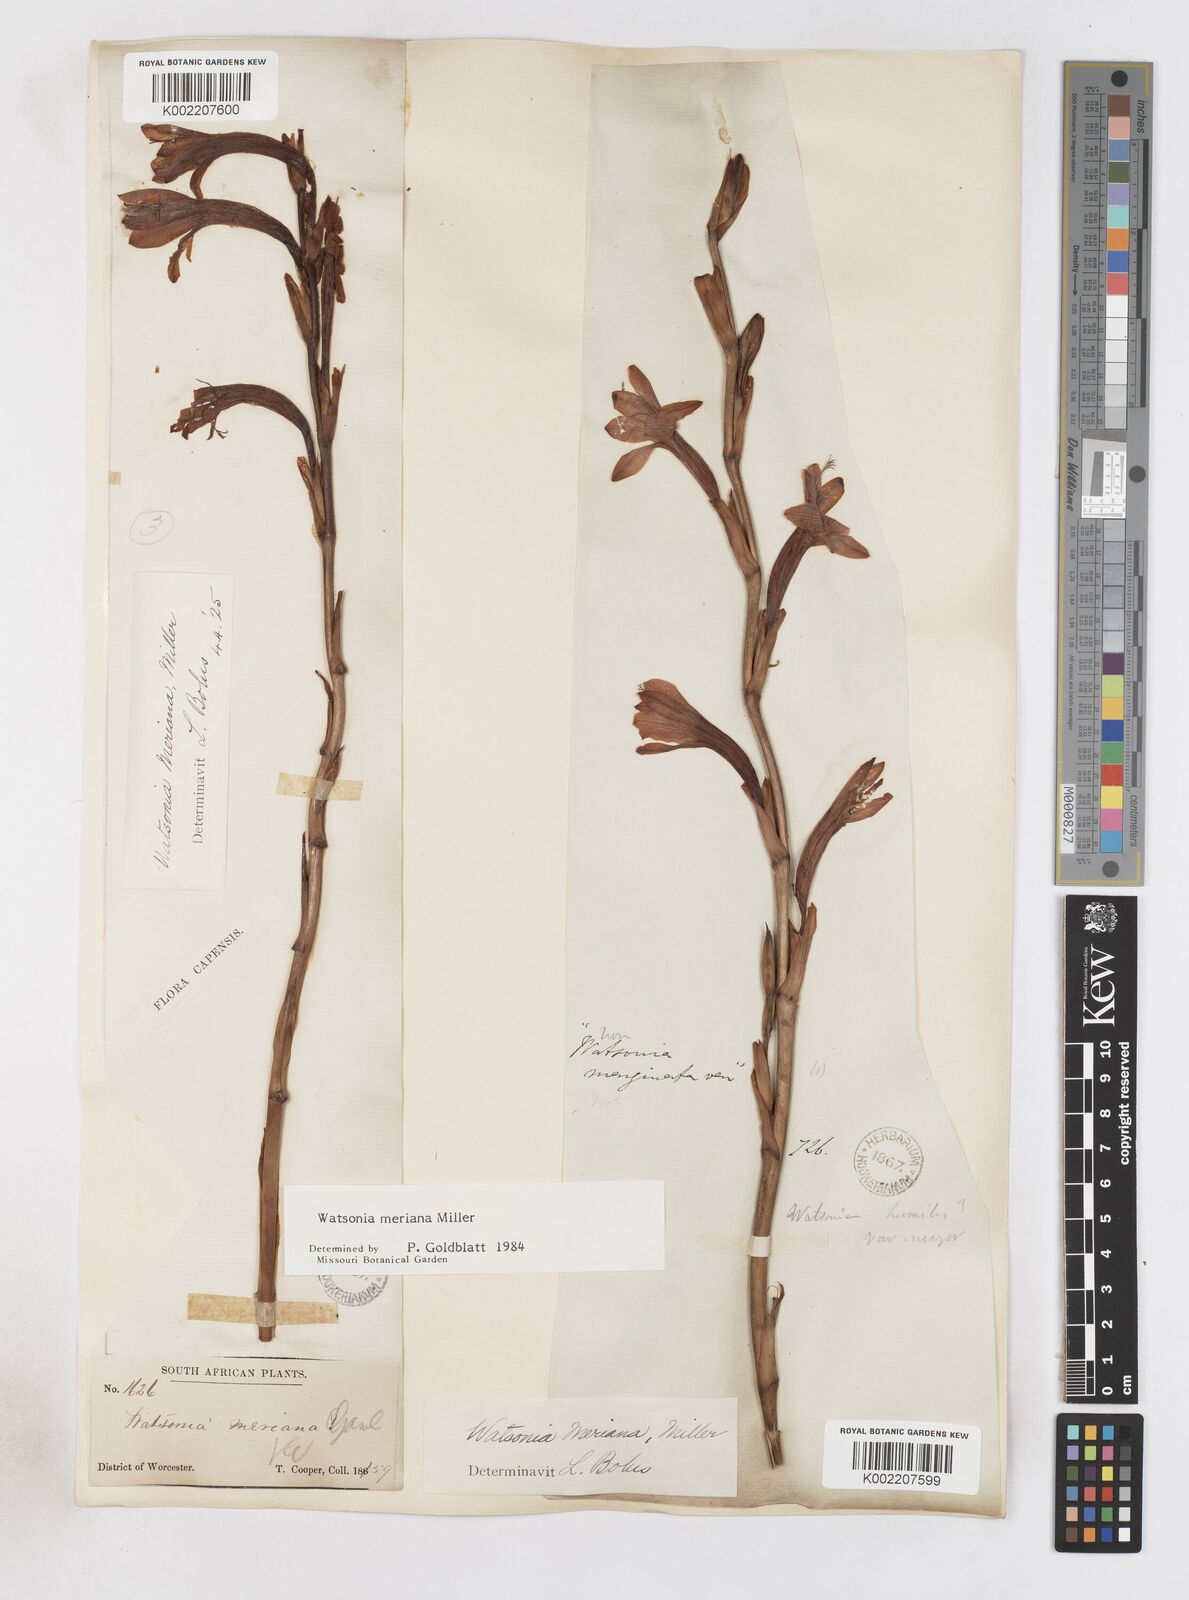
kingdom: Plantae
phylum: Tracheophyta
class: Liliopsida
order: Asparagales
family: Iridaceae
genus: Watsonia
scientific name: Watsonia meriana
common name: Bulbil bugle-lily
